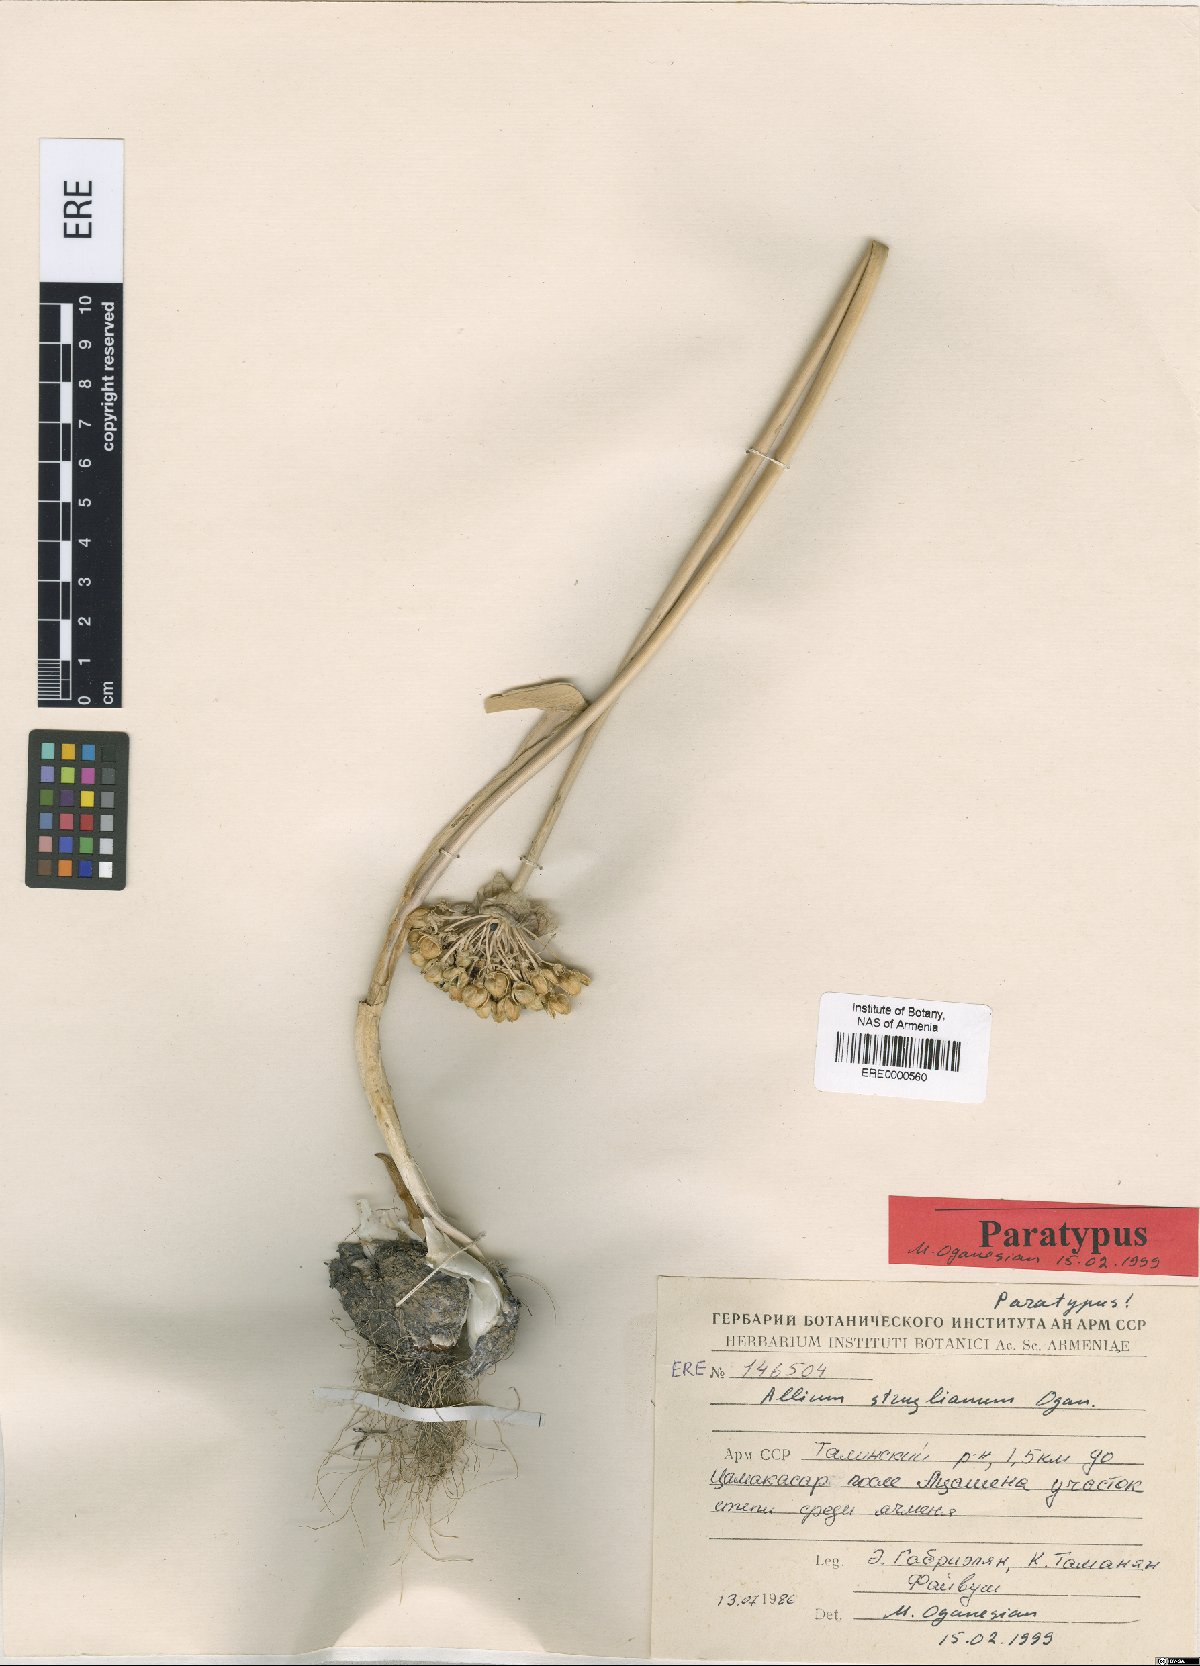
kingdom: Plantae
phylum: Tracheophyta
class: Liliopsida
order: Asparagales
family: Amaryllidaceae
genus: Allium
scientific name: Allium struzlianum
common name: Struzl's onion
